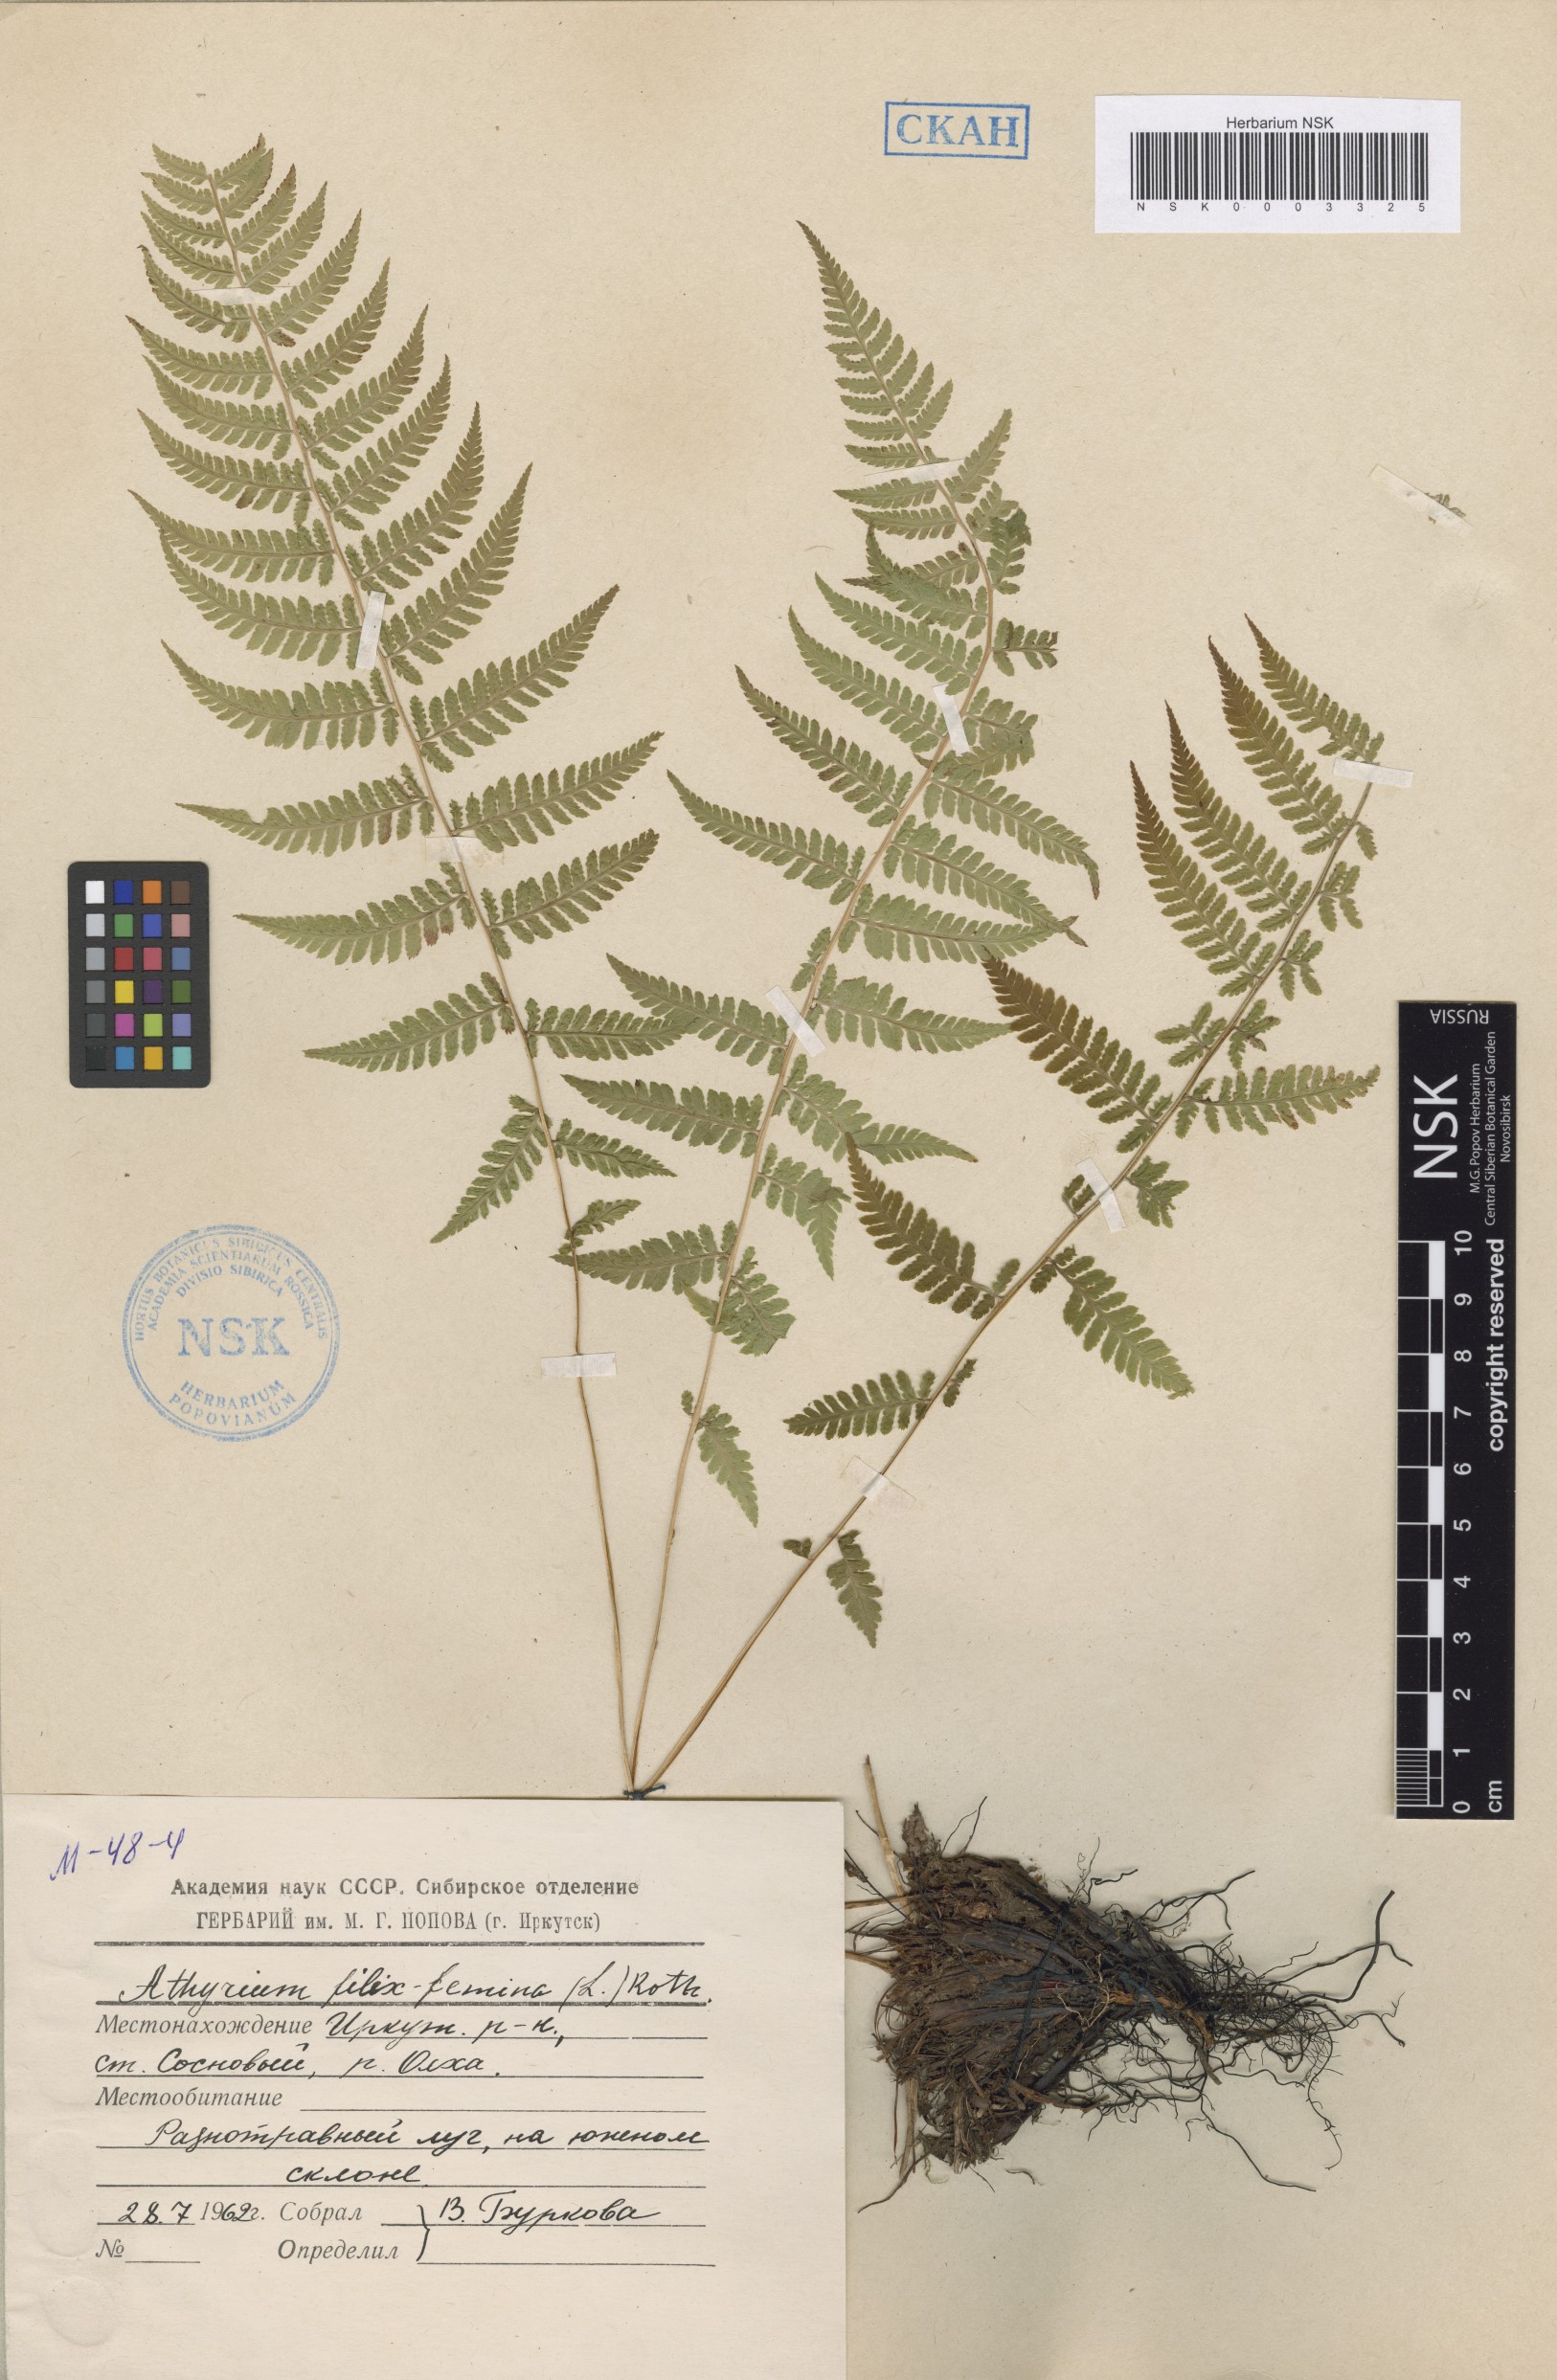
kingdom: Plantae
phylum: Tracheophyta
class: Polypodiopsida
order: Polypodiales
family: Athyriaceae
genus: Athyrium
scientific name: Athyrium filix-femina
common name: Lady fern
